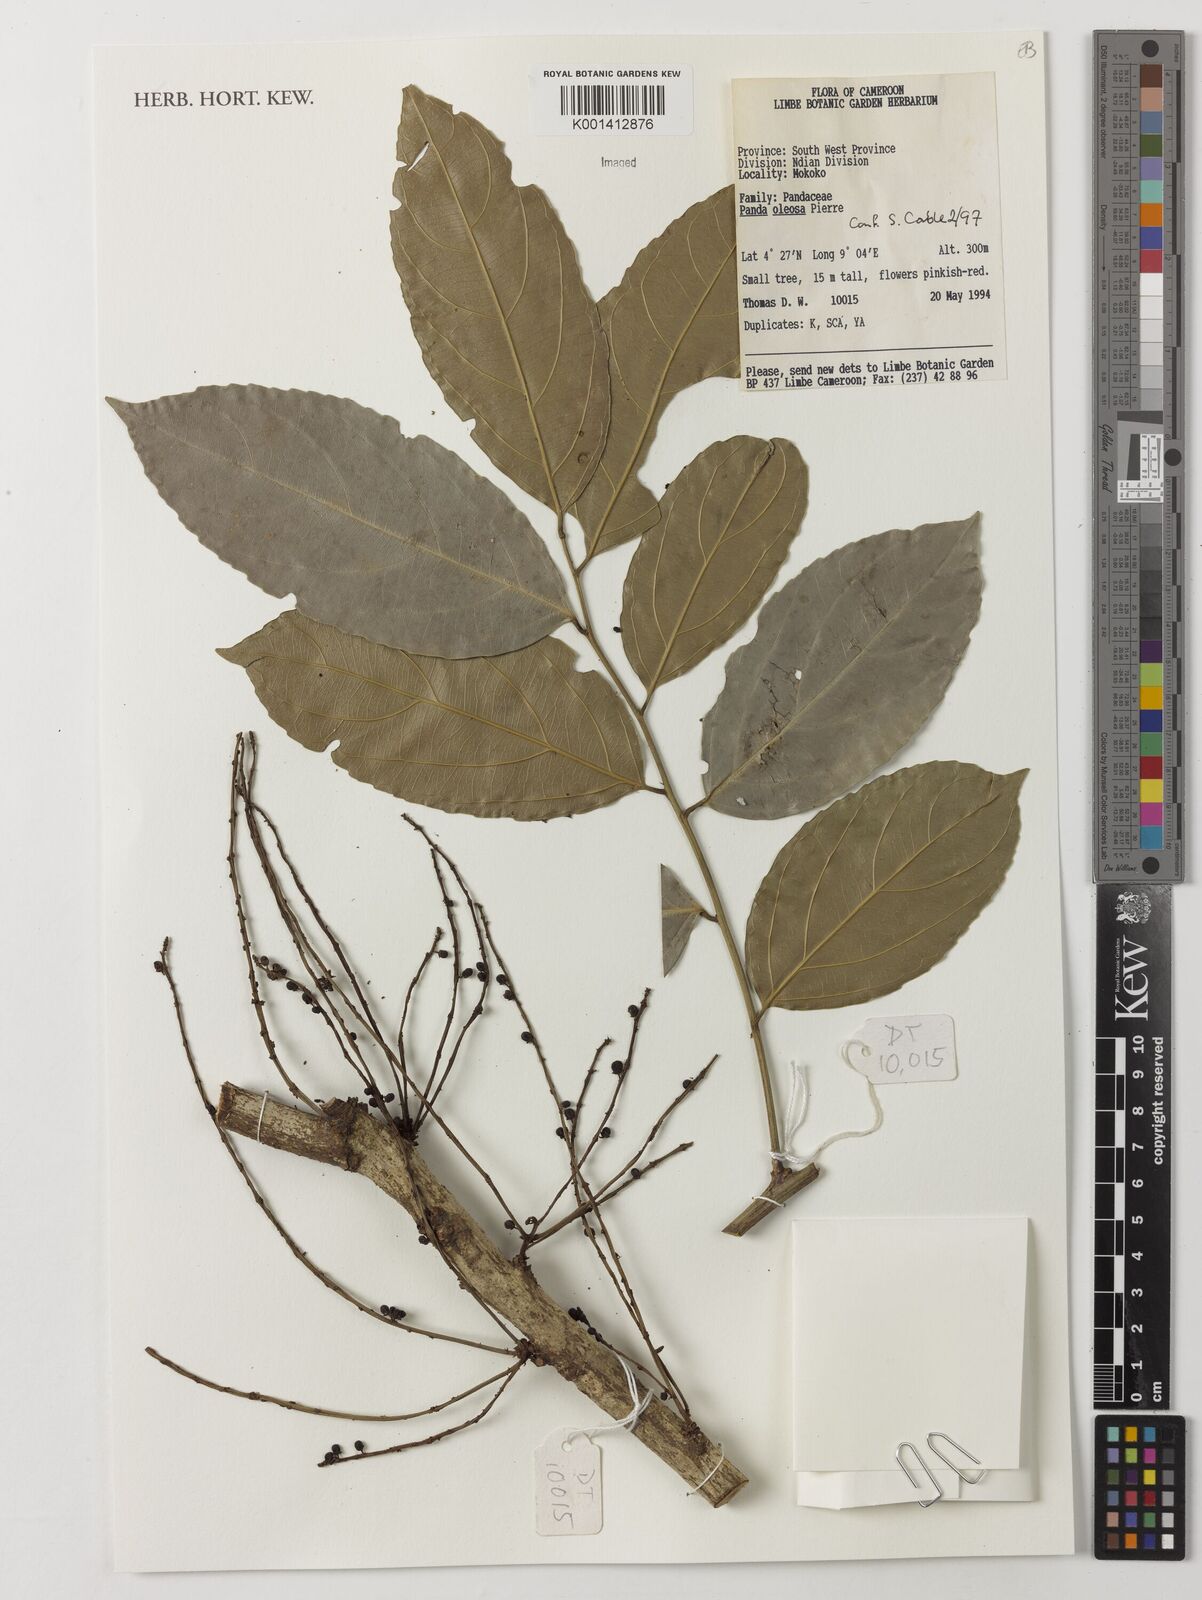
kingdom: Plantae
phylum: Tracheophyta
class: Magnoliopsida
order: Malpighiales
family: Pandaceae
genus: Panda
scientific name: Panda oleosa
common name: Panda
